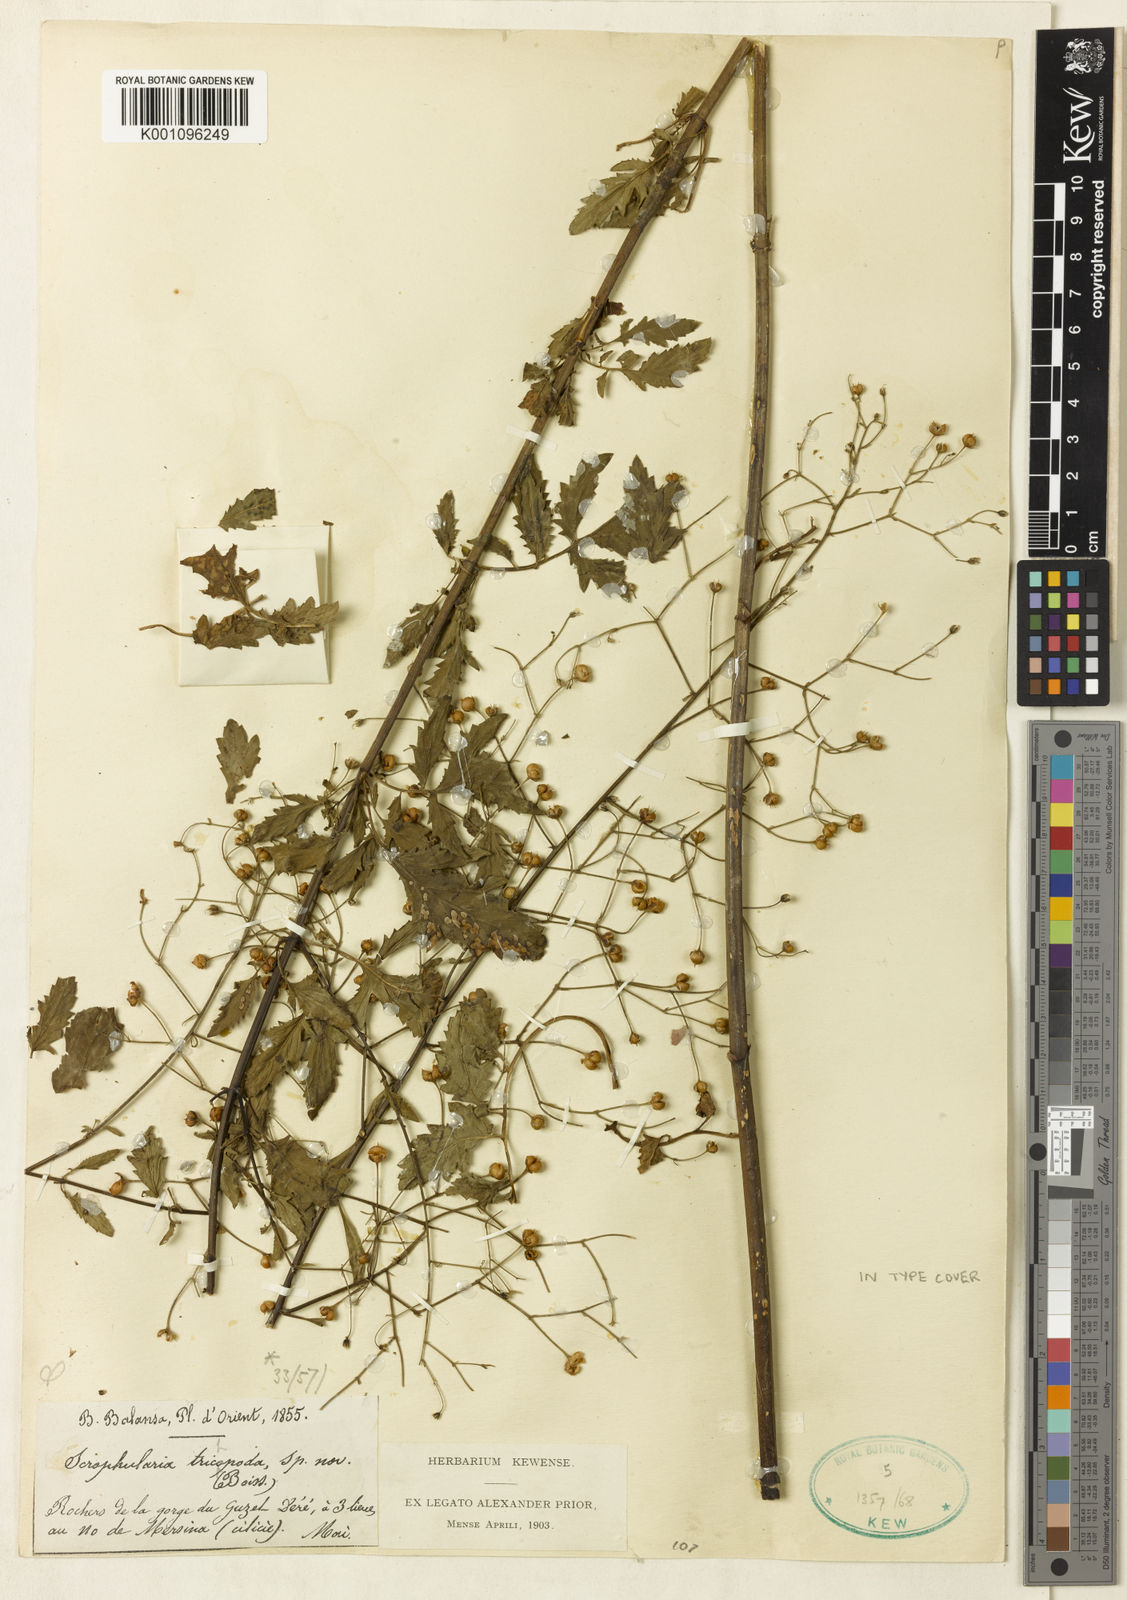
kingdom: Plantae
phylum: Tracheophyta
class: Magnoliopsida
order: Lamiales
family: Scrophulariaceae
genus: Scrophularia
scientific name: Scrophularia trichopoda
